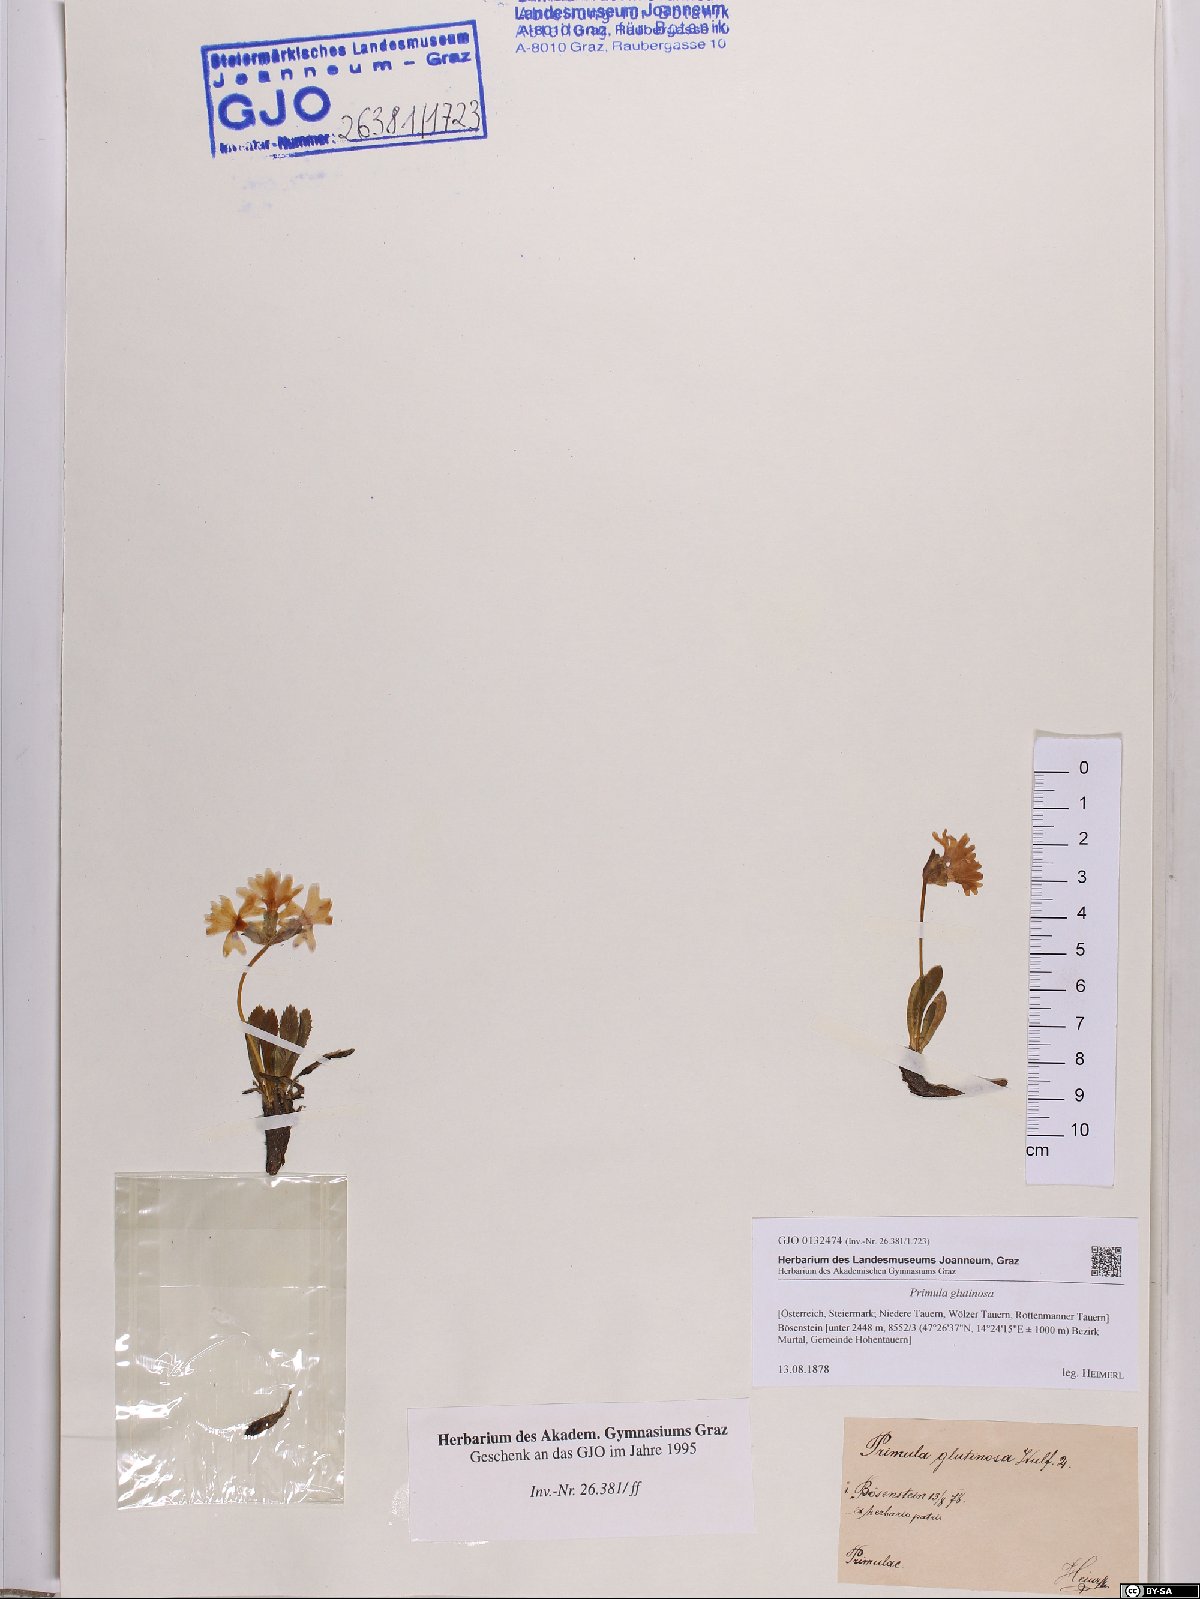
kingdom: Plantae
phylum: Tracheophyta
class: Magnoliopsida
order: Ericales
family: Primulaceae
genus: Primula
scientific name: Primula glutinosa
